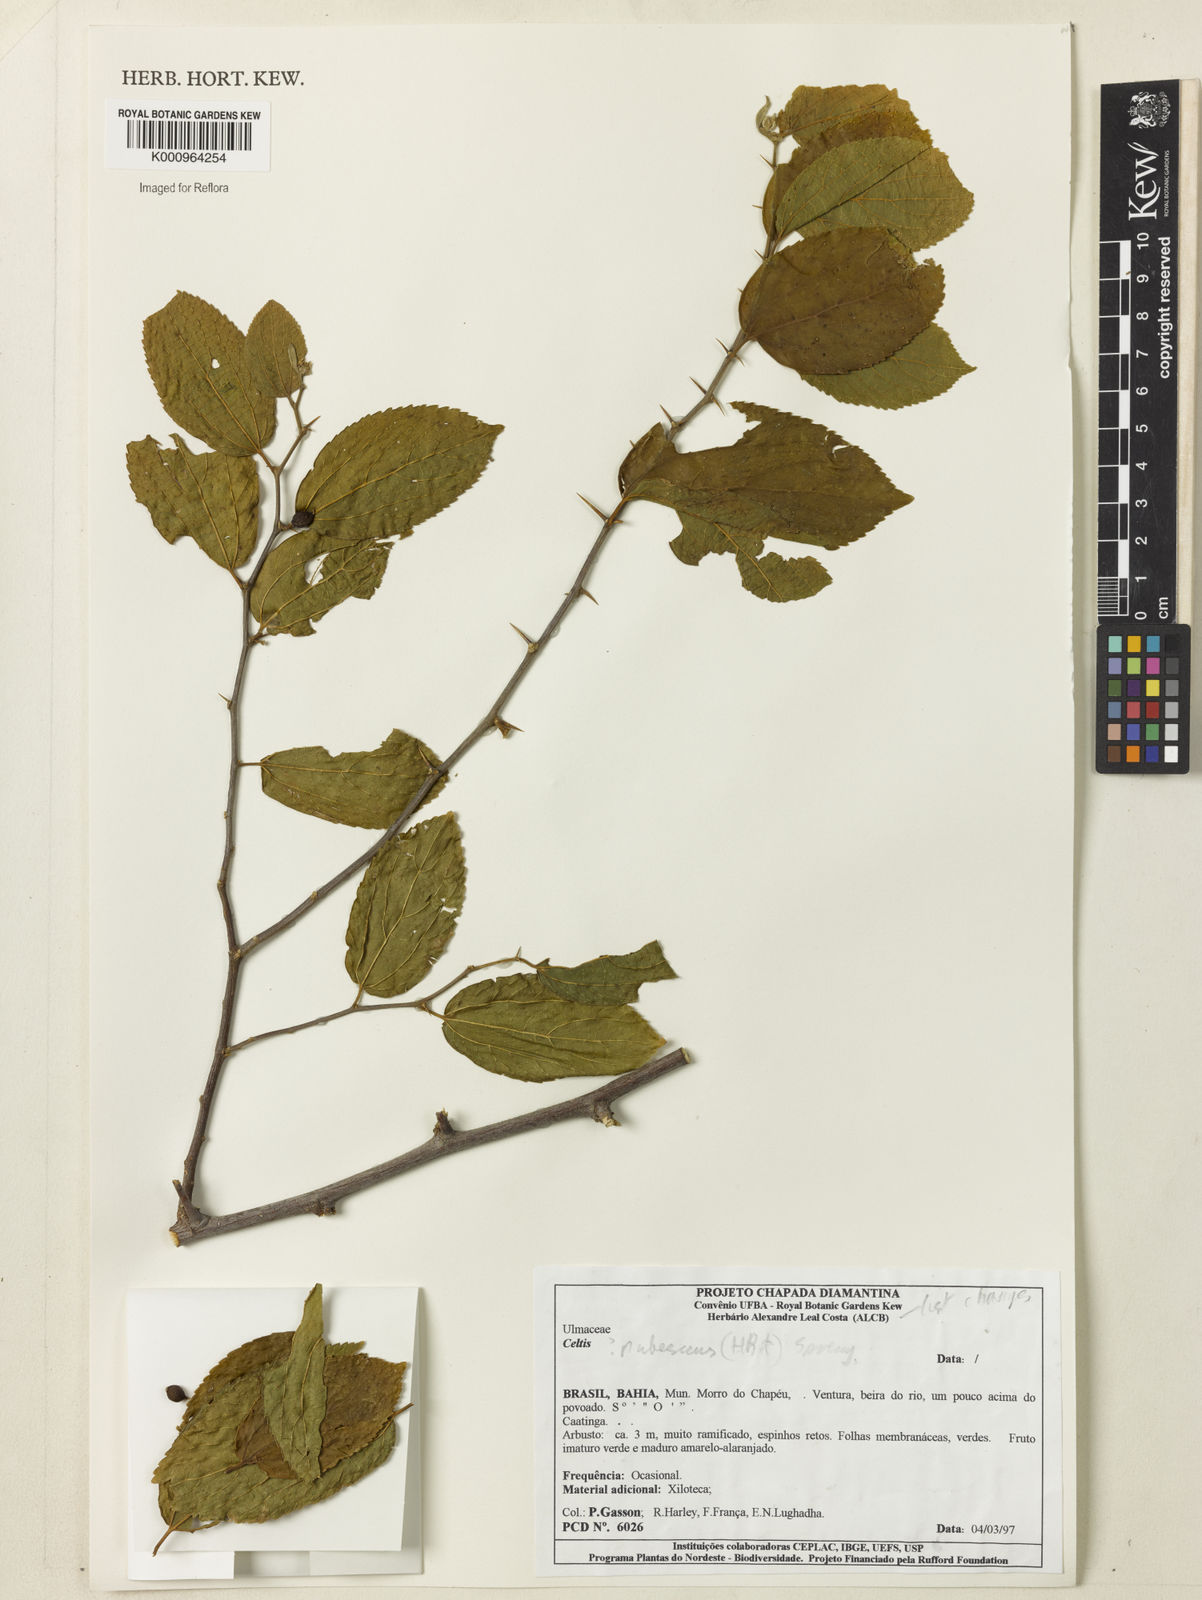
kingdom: Plantae
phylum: Tracheophyta
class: Magnoliopsida
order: Rosales
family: Cannabaceae
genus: Celtis
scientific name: Celtis iguanaea
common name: Iguana hackberry
